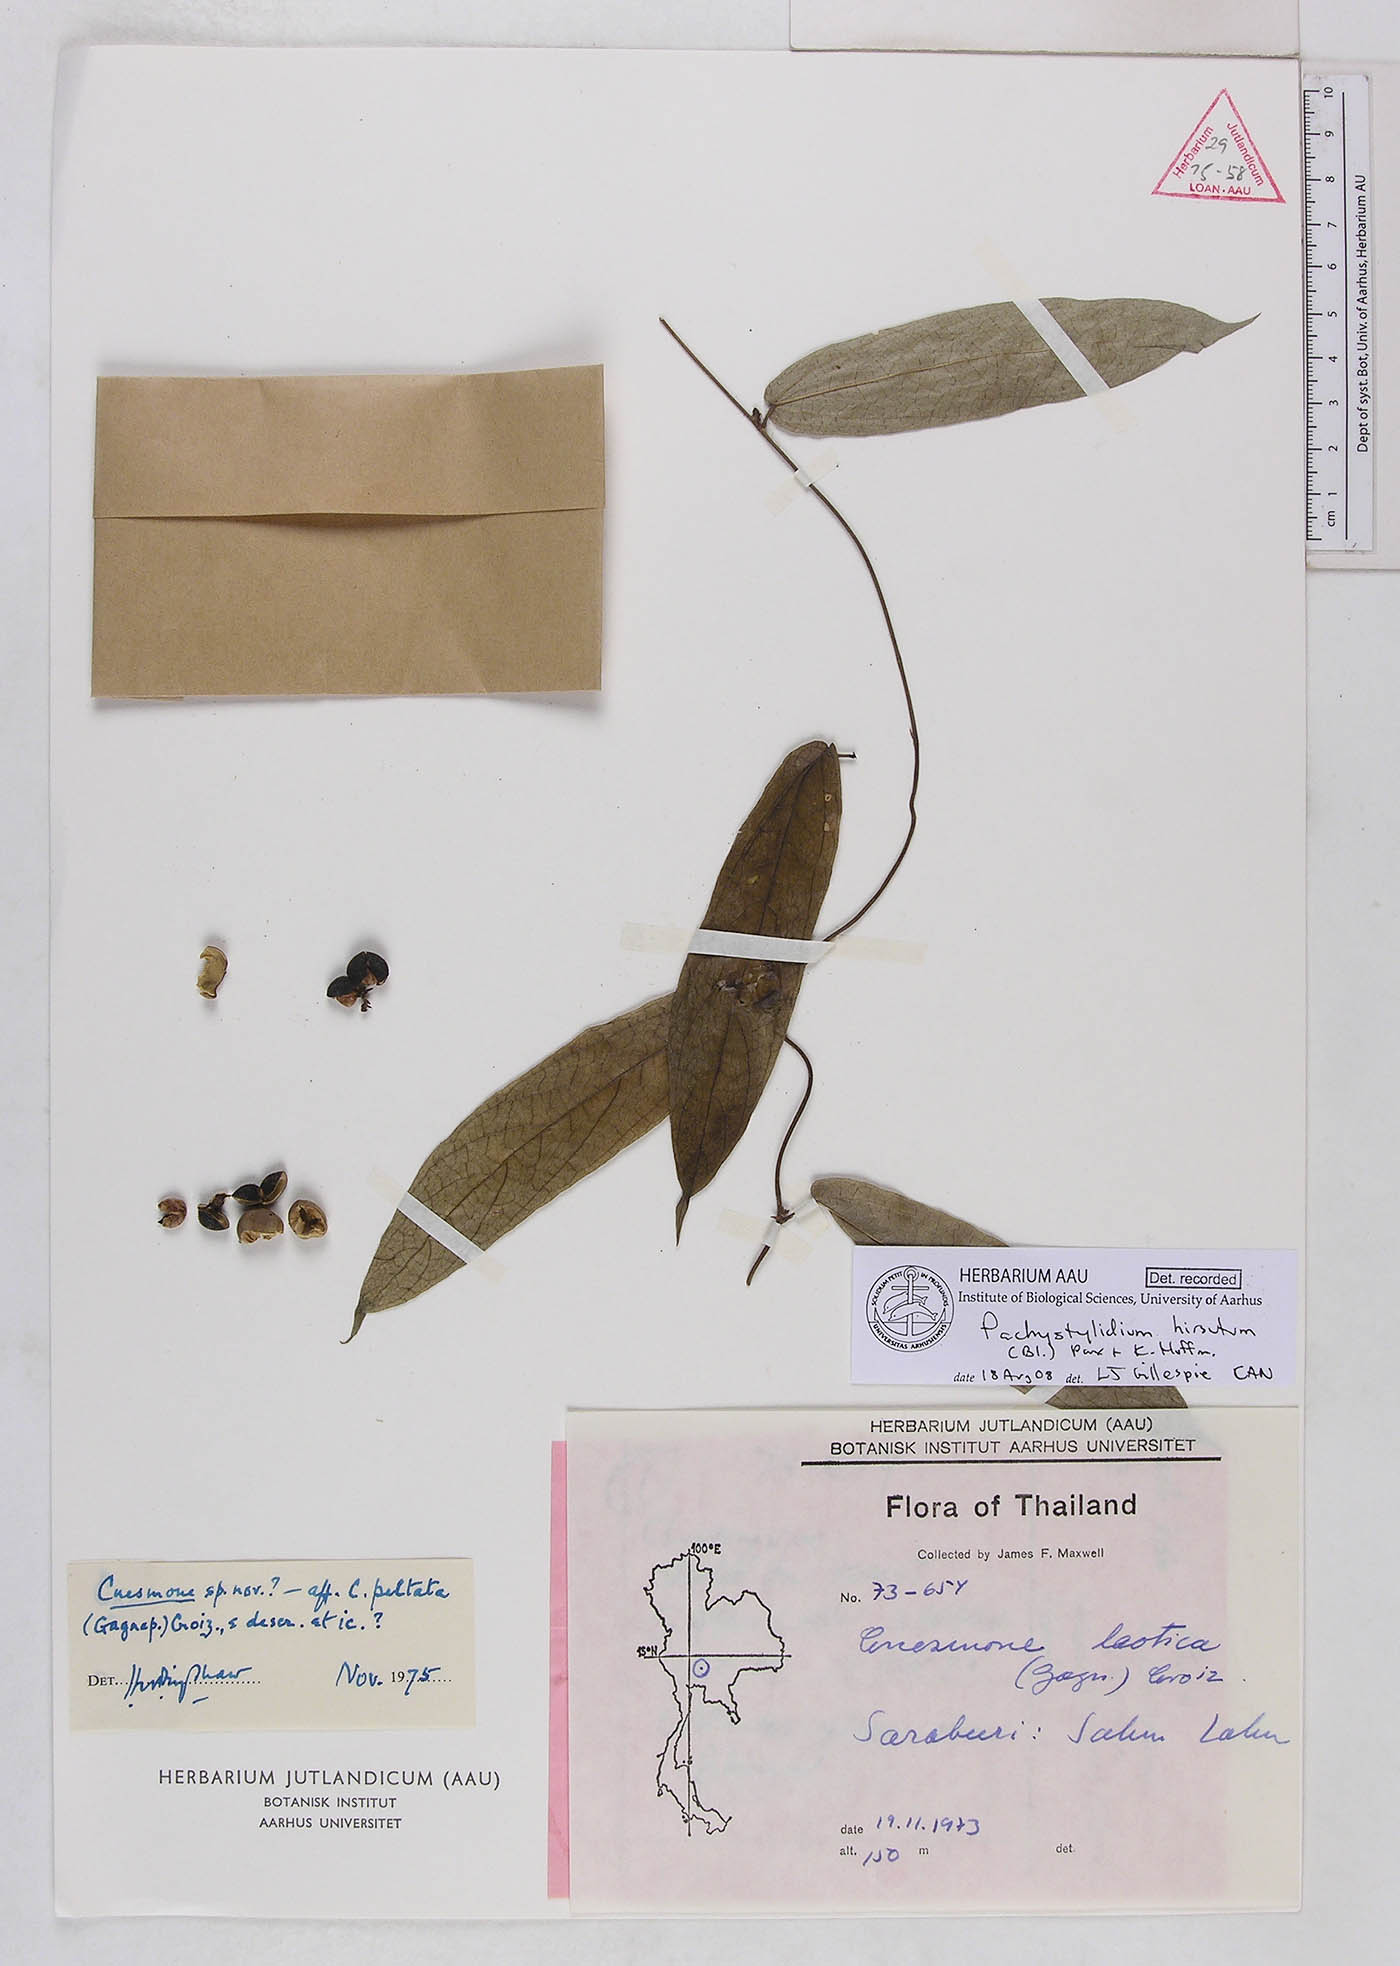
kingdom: Plantae
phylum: Tracheophyta
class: Magnoliopsida
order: Malpighiales
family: Euphorbiaceae
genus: Pachystylidium
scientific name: Pachystylidium hirsutum
